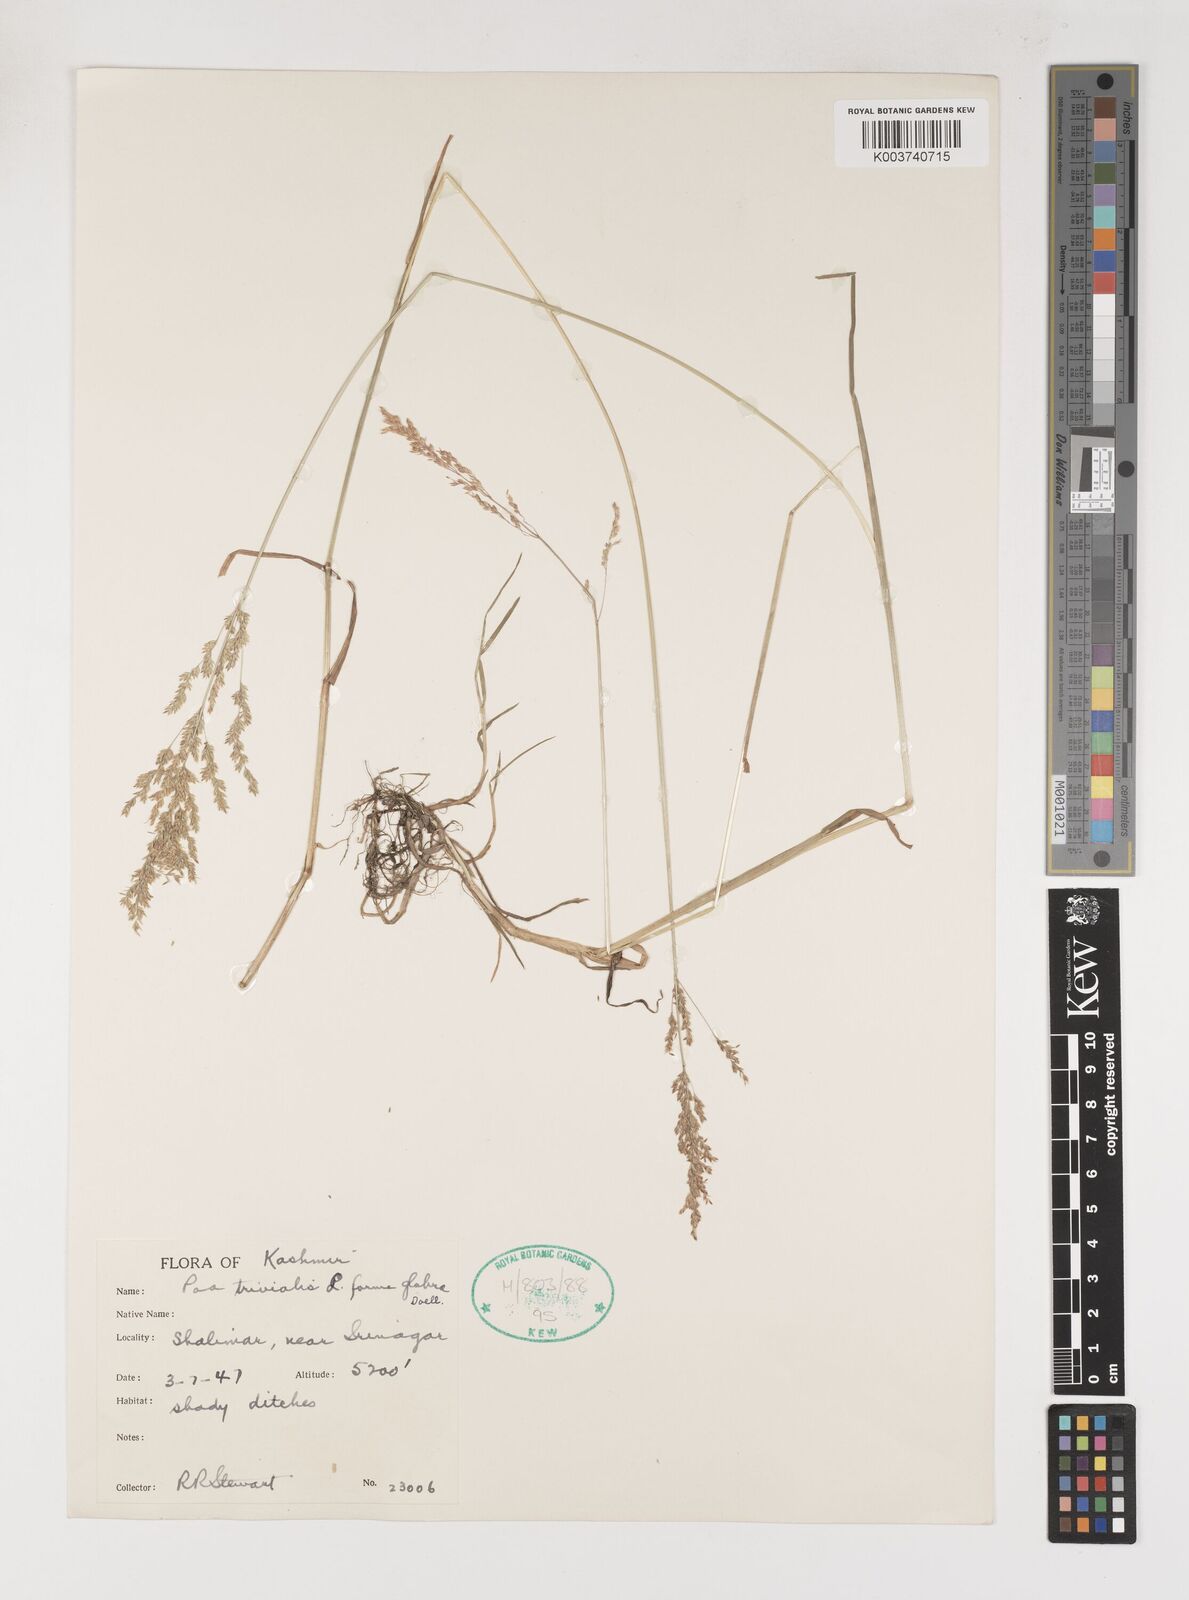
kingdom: Plantae
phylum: Tracheophyta
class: Liliopsida
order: Poales
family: Poaceae
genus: Poa
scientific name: Poa trivialis
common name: Rough bluegrass
